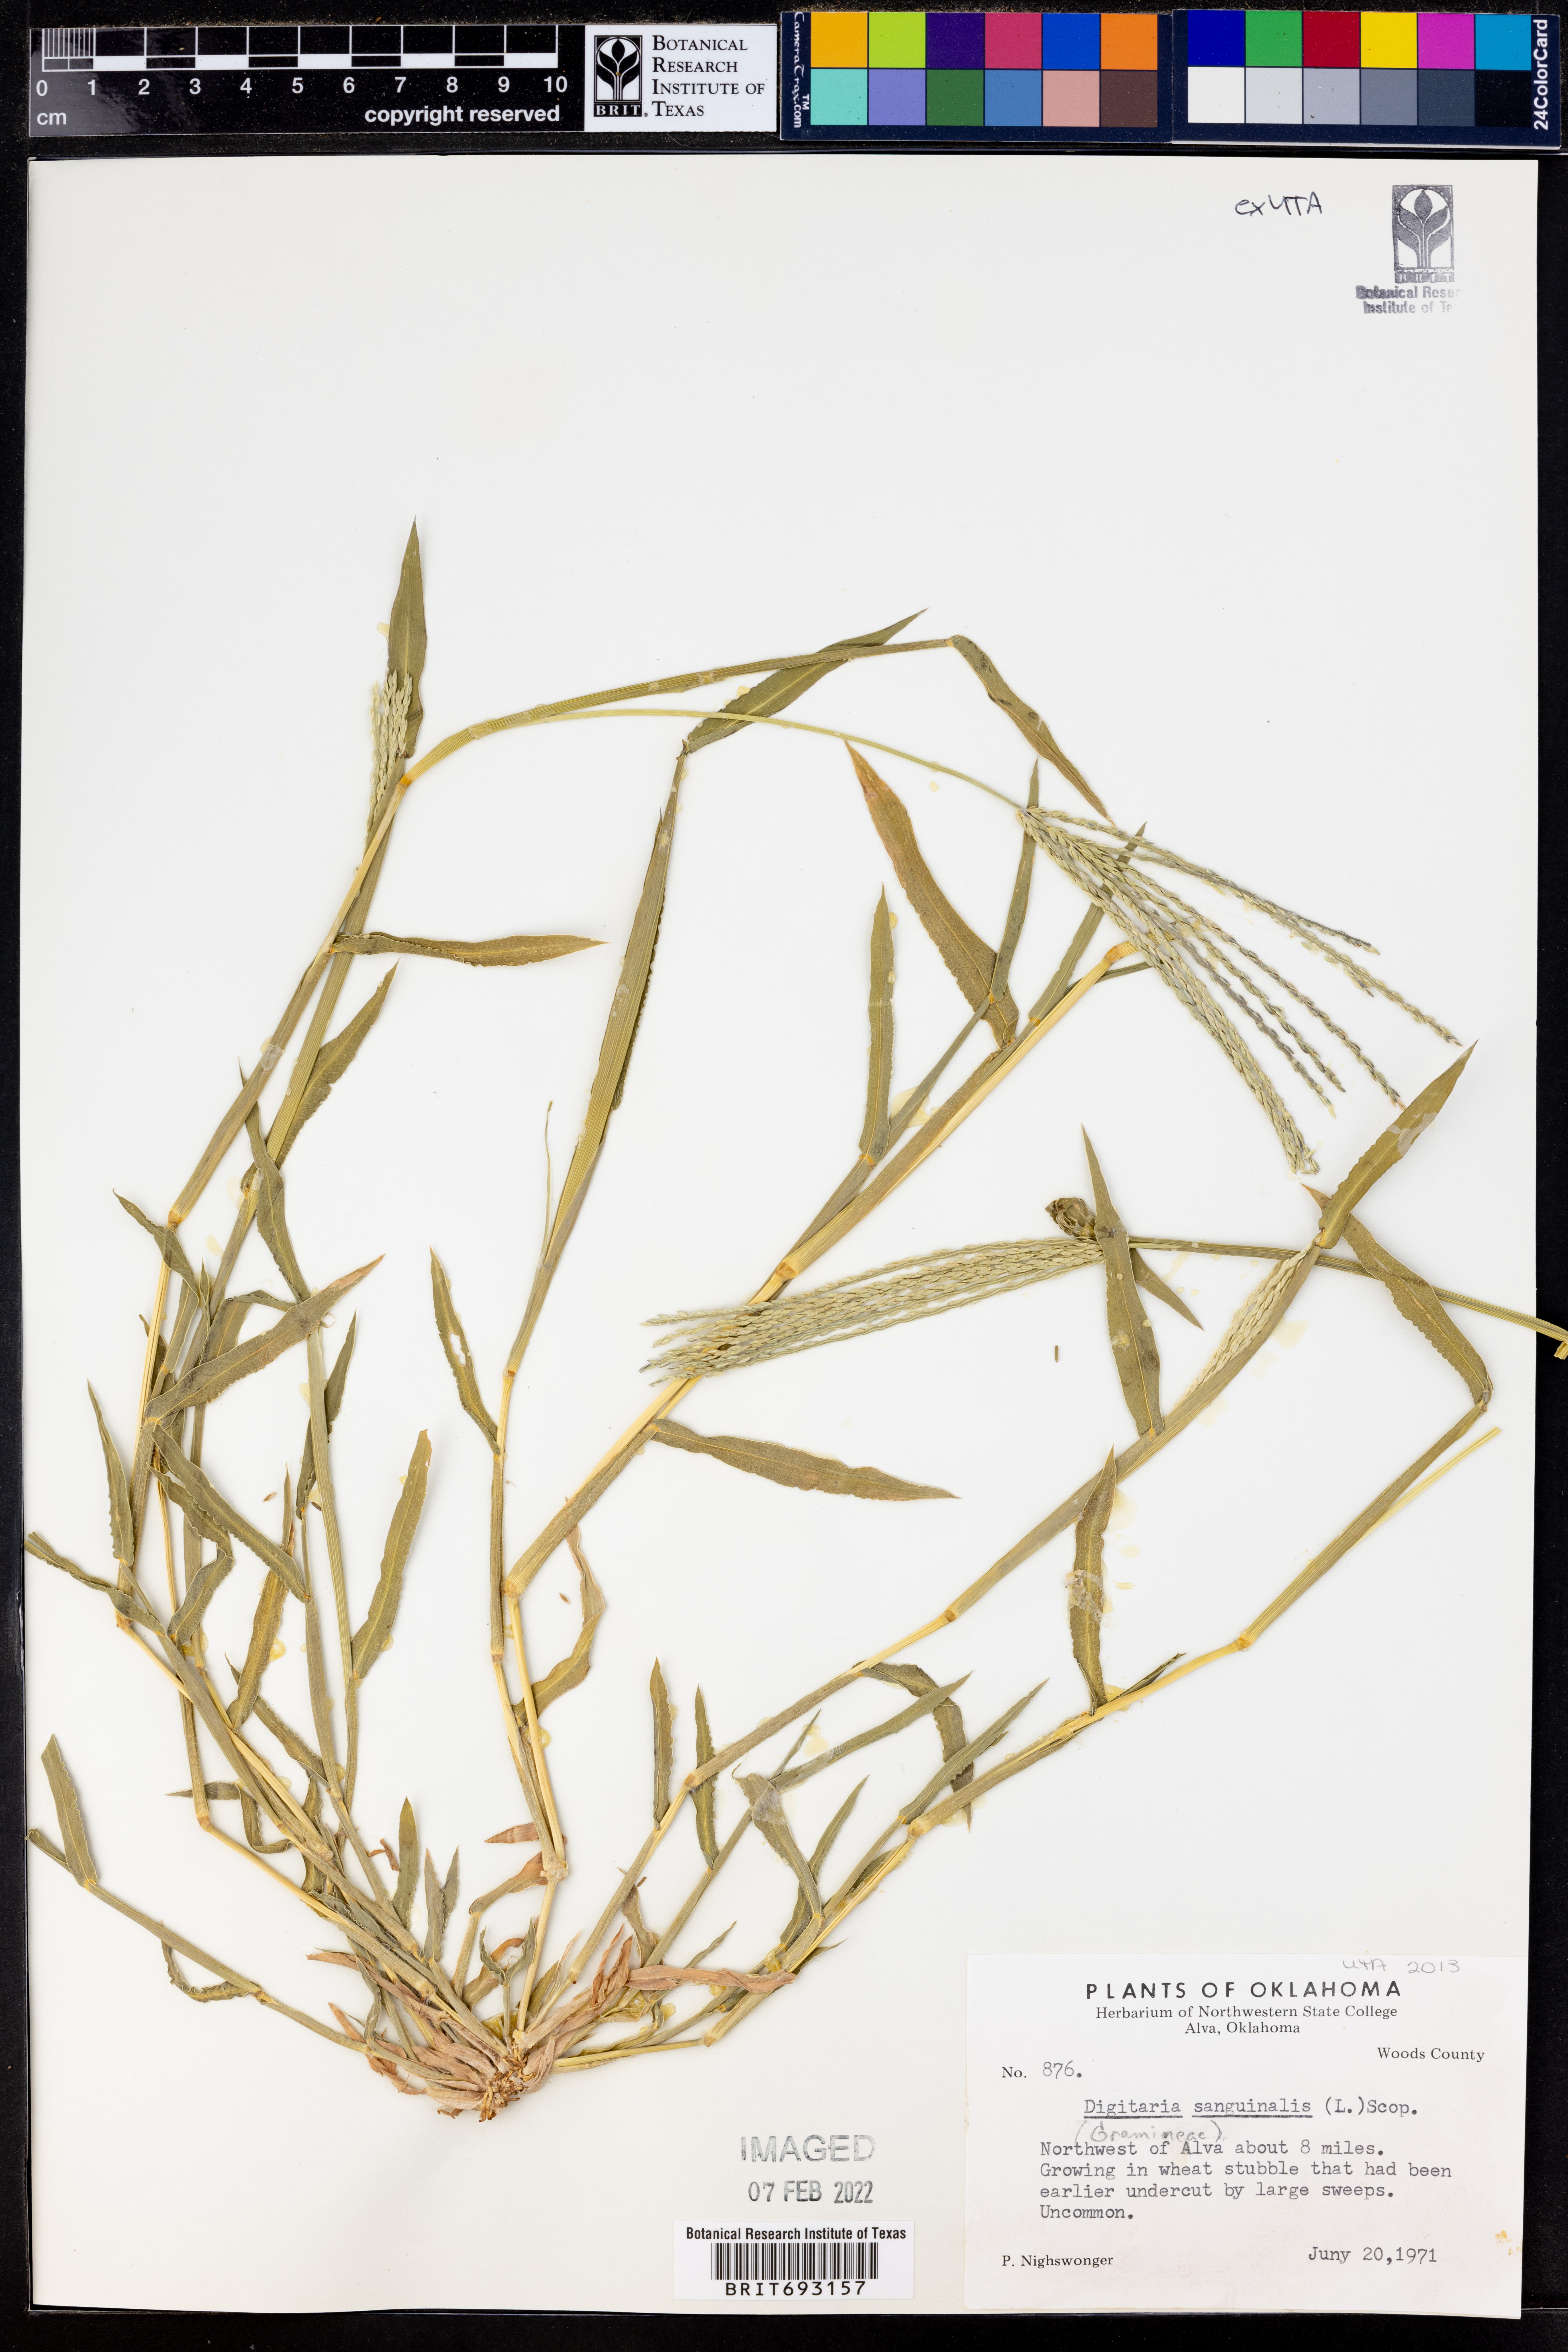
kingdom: Plantae
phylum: Tracheophyta
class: Liliopsida
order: Poales
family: Poaceae
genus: Digitaria
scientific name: Digitaria sanguinalis
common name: Hairy crabgrass
